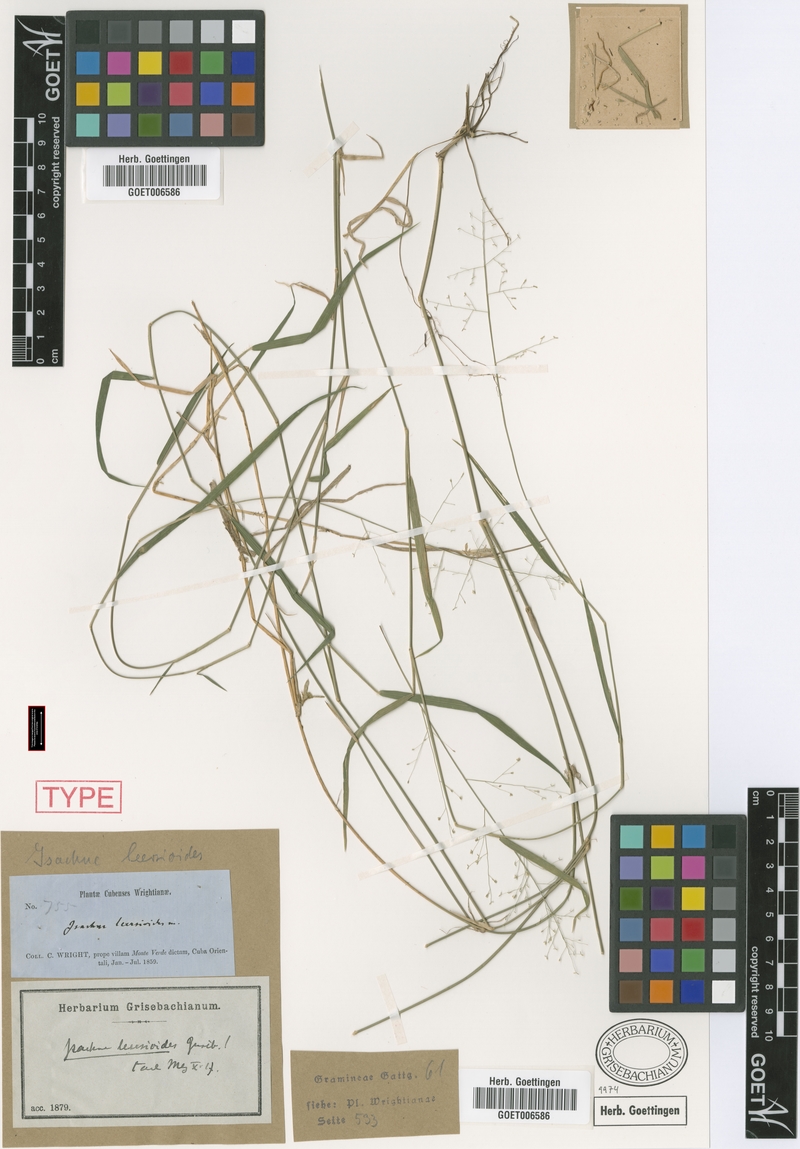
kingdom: Plantae
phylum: Tracheophyta
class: Liliopsida
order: Poales
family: Poaceae
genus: Isachne
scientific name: Isachne leersioides
